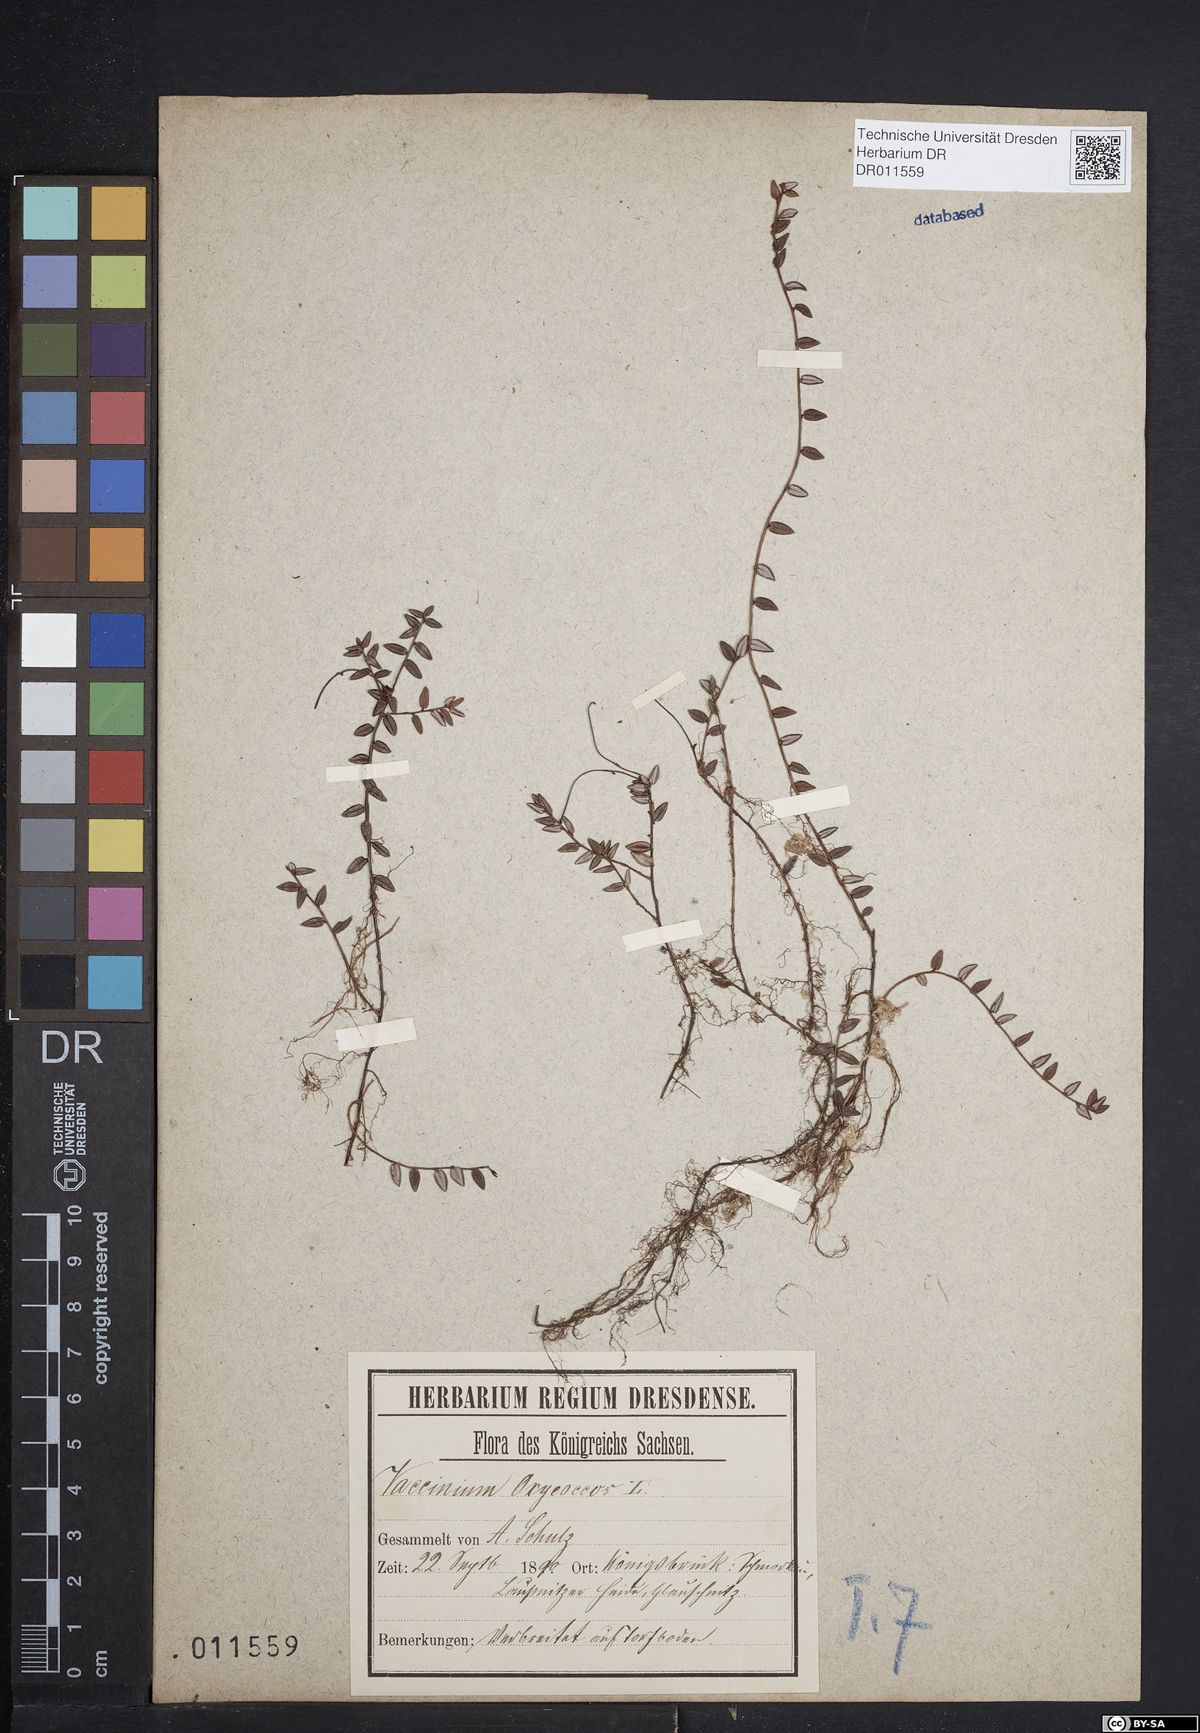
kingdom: Plantae
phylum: Tracheophyta
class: Magnoliopsida
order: Ericales
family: Ericaceae
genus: Vaccinium
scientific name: Vaccinium oxycoccos
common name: Cranberry
